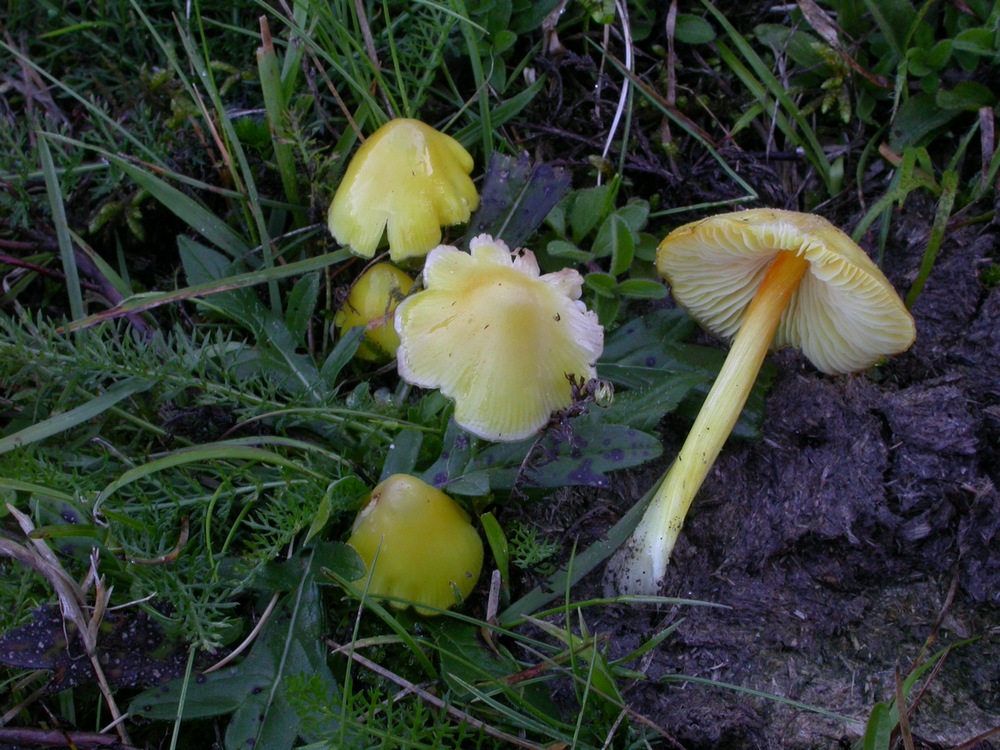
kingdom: Fungi
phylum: Basidiomycota
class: Agaricomycetes
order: Agaricales
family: Hygrophoraceae
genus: Hygrocybe
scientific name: Hygrocybe acutoconica
